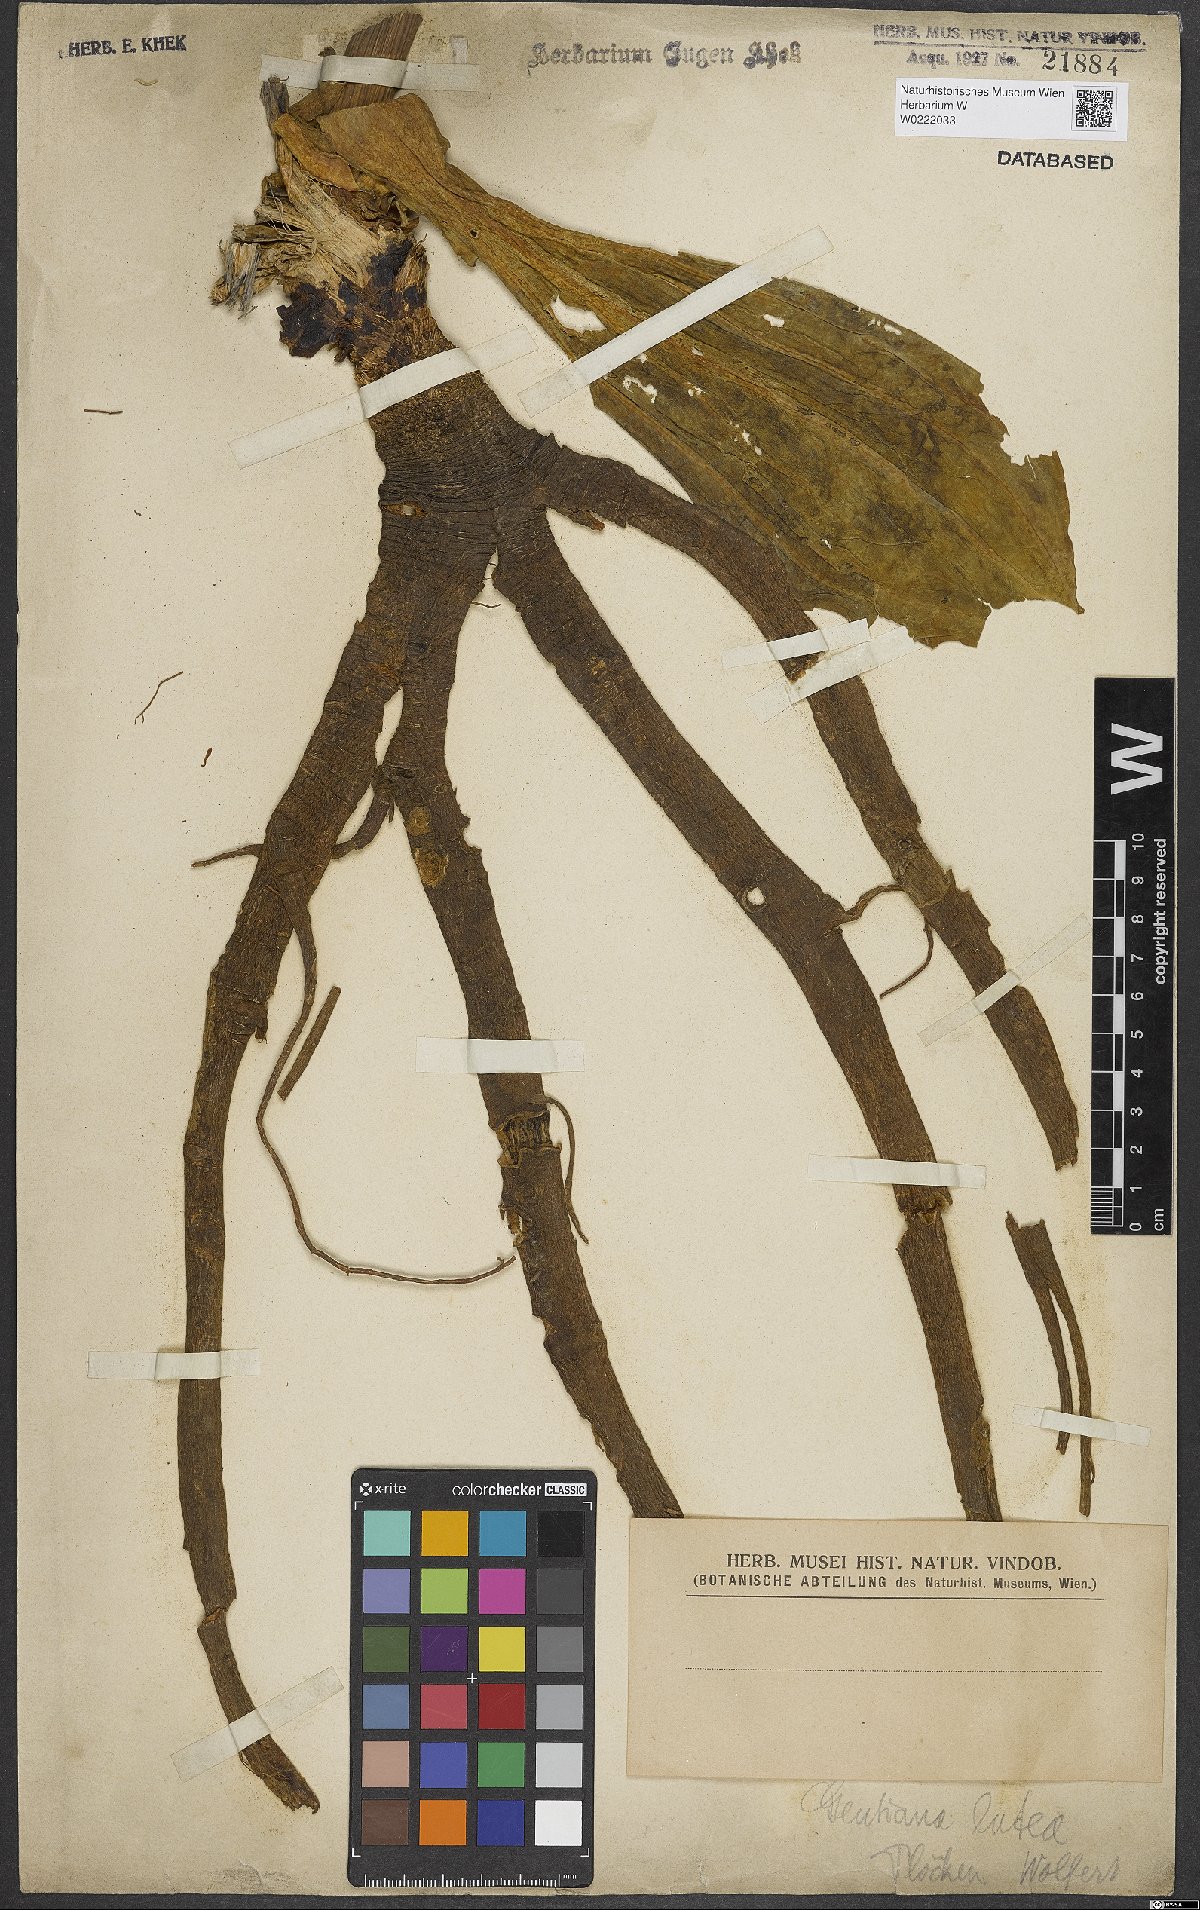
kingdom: Plantae
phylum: Tracheophyta
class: Magnoliopsida
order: Gentianales
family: Gentianaceae
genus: Gentiana
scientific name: Gentiana lutea
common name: Great yellow gentian
